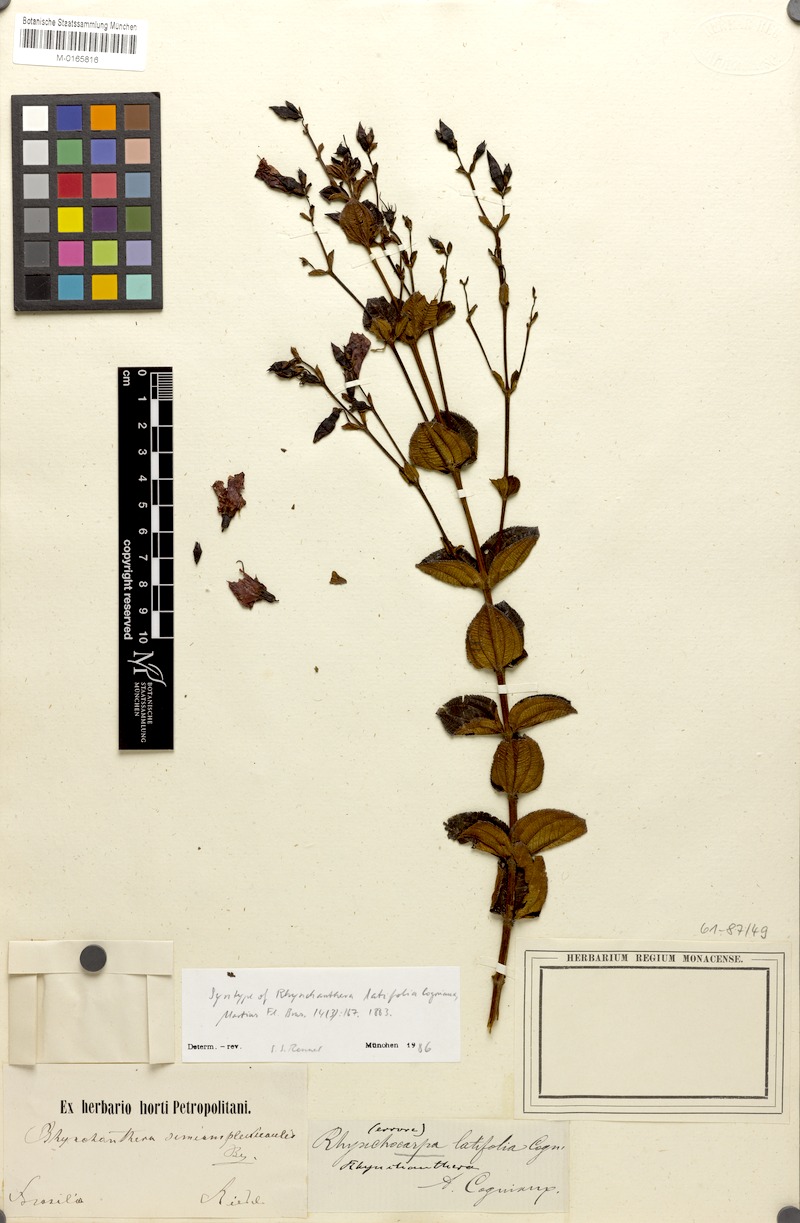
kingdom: Plantae
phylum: Tracheophyta
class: Magnoliopsida
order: Myrtales
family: Melastomataceae
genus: Rhynchanthera
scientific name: Rhynchanthera latifolia
